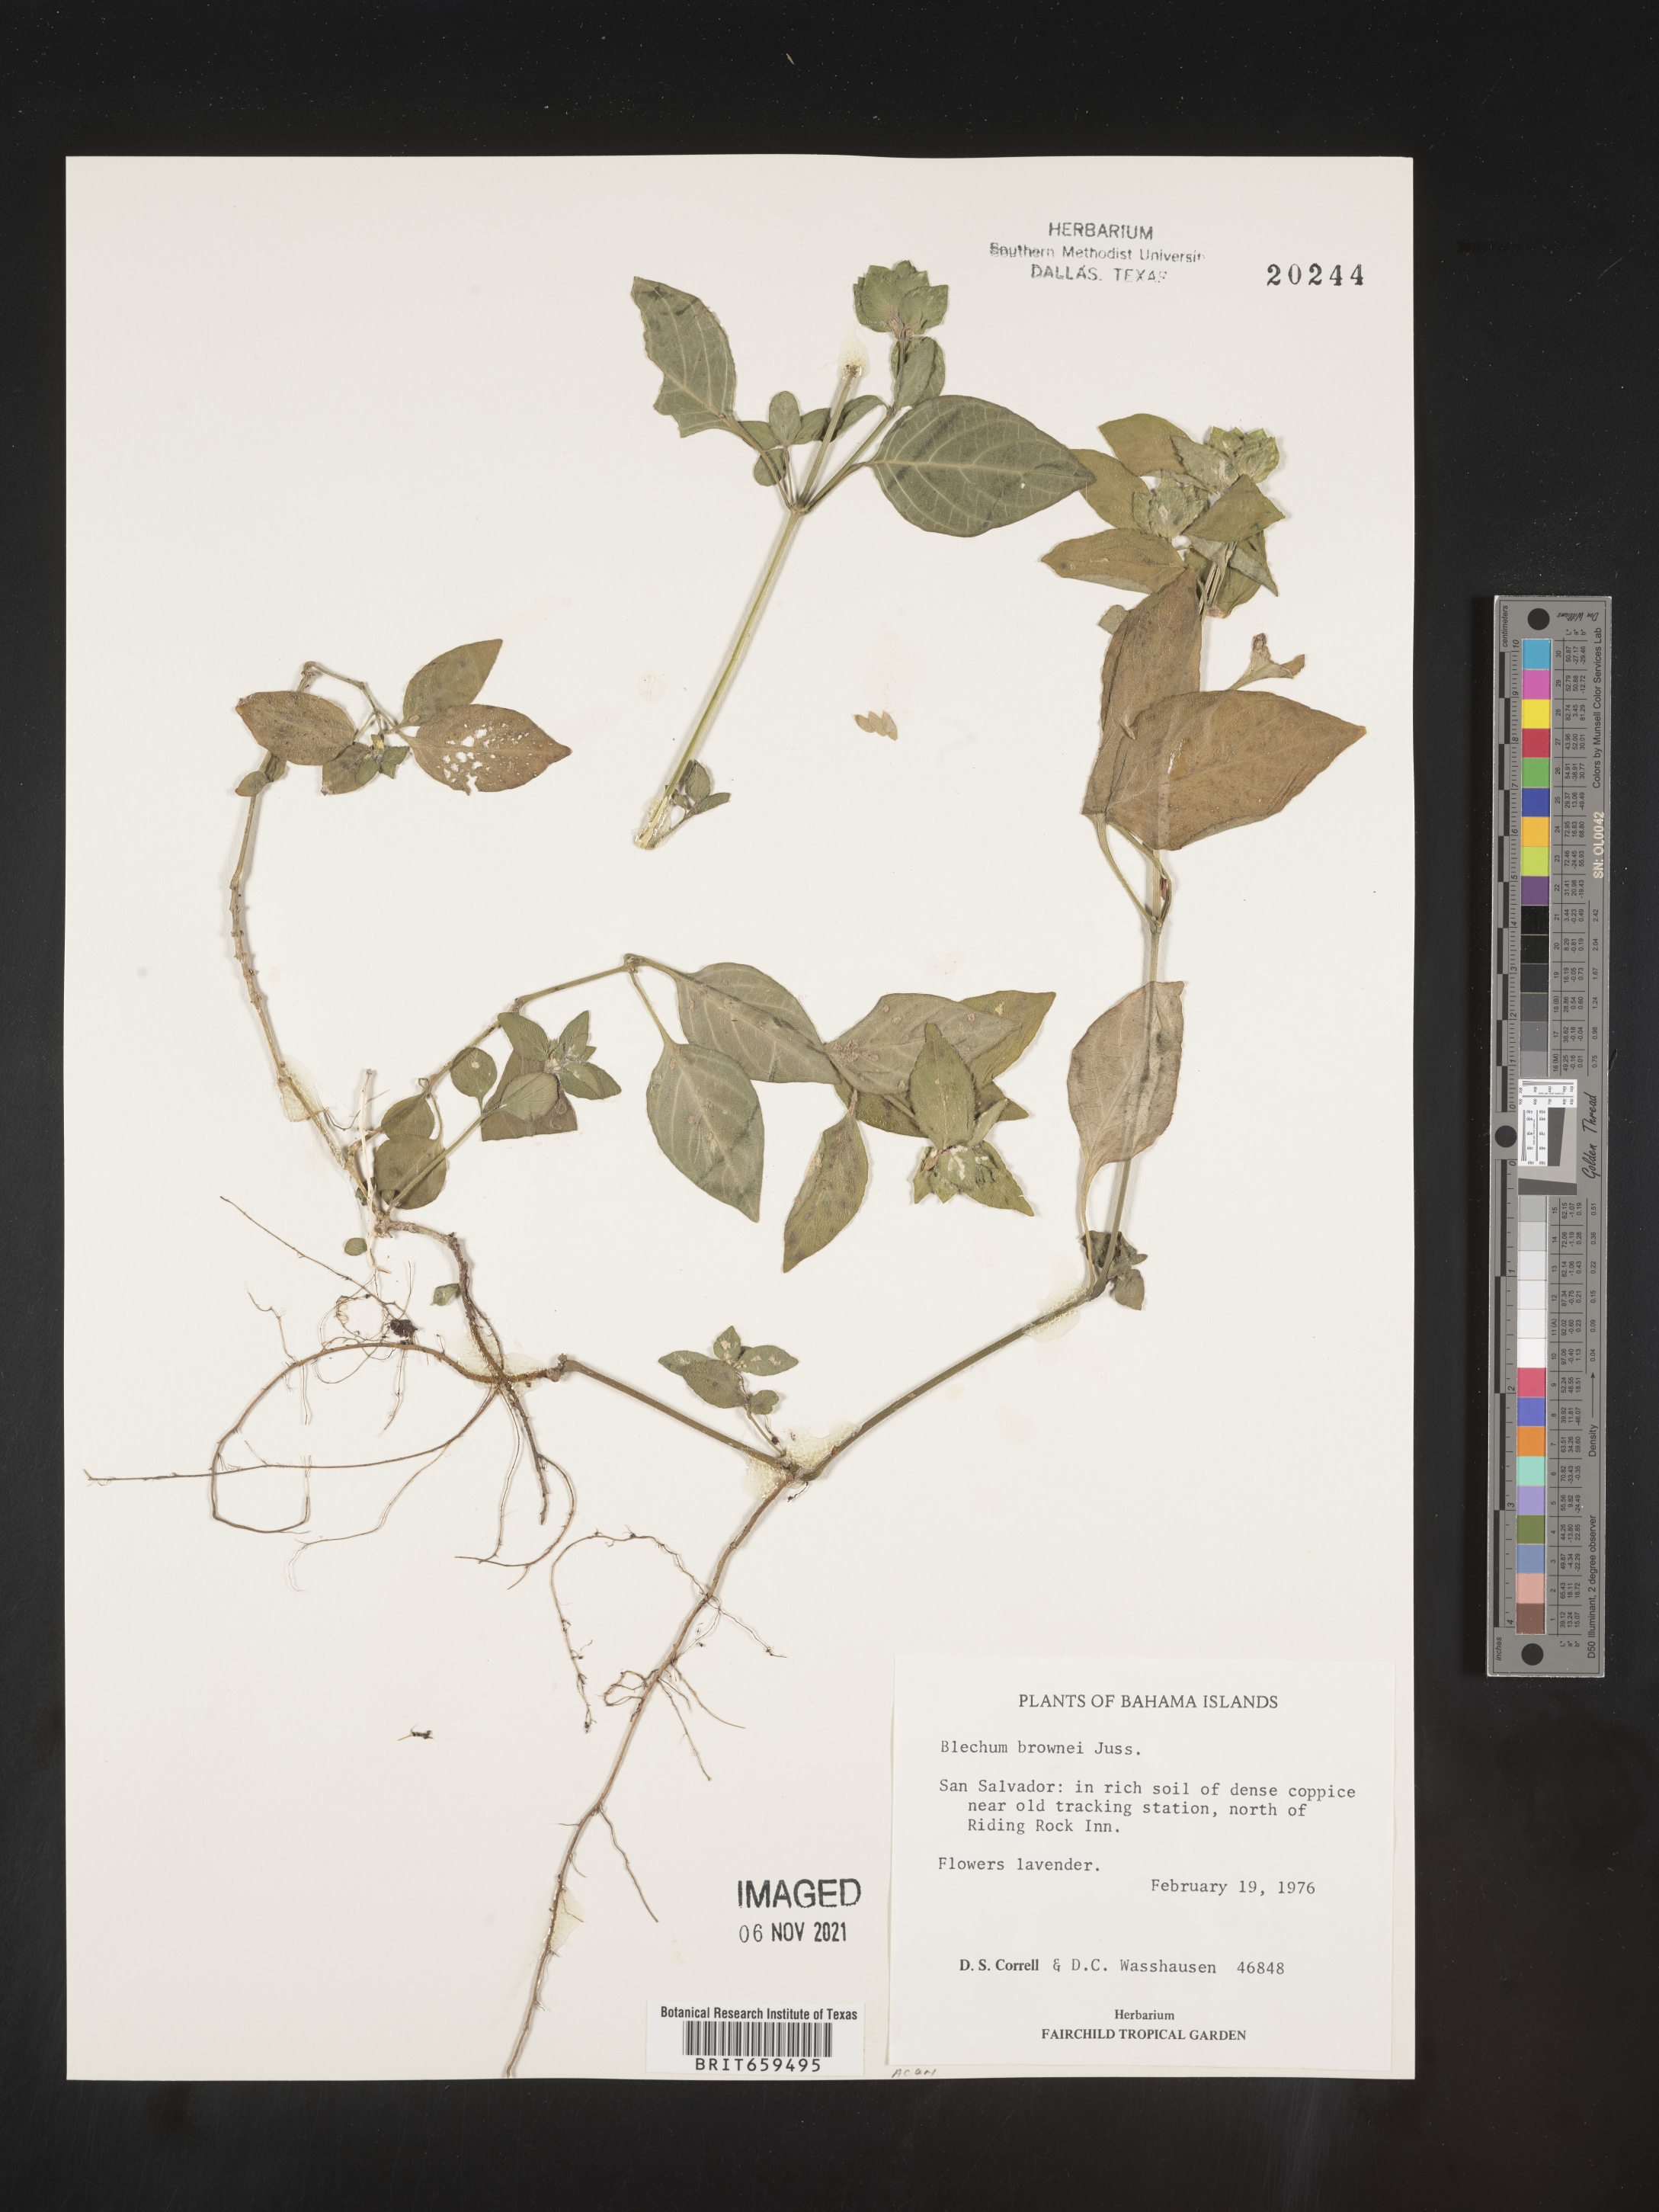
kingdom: Plantae
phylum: Tracheophyta
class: Polypodiopsida
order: Polypodiales
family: Blechnaceae
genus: Blechum
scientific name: Blechum
